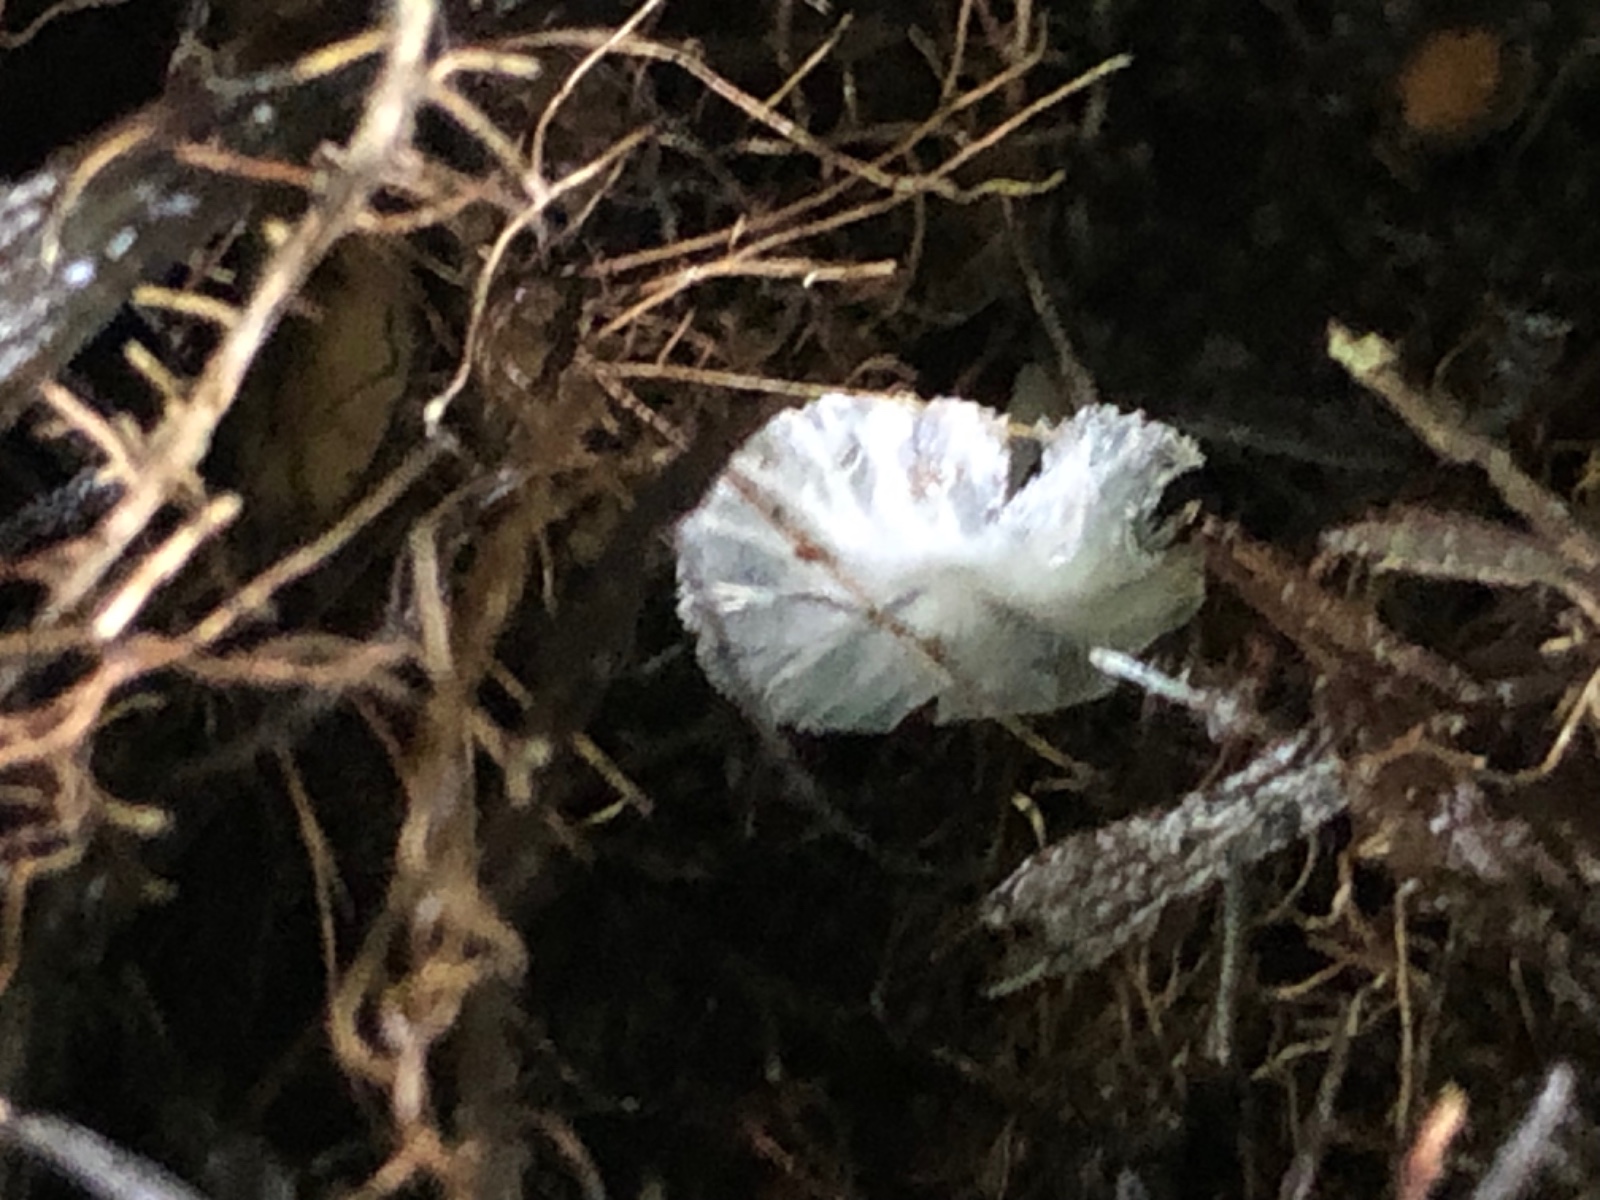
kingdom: Fungi
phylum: Basidiomycota
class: Agaricomycetes
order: Agaricales
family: Tricholomataceae
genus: Delicatula
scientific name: Delicatula integrella
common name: slørhuesvamp
